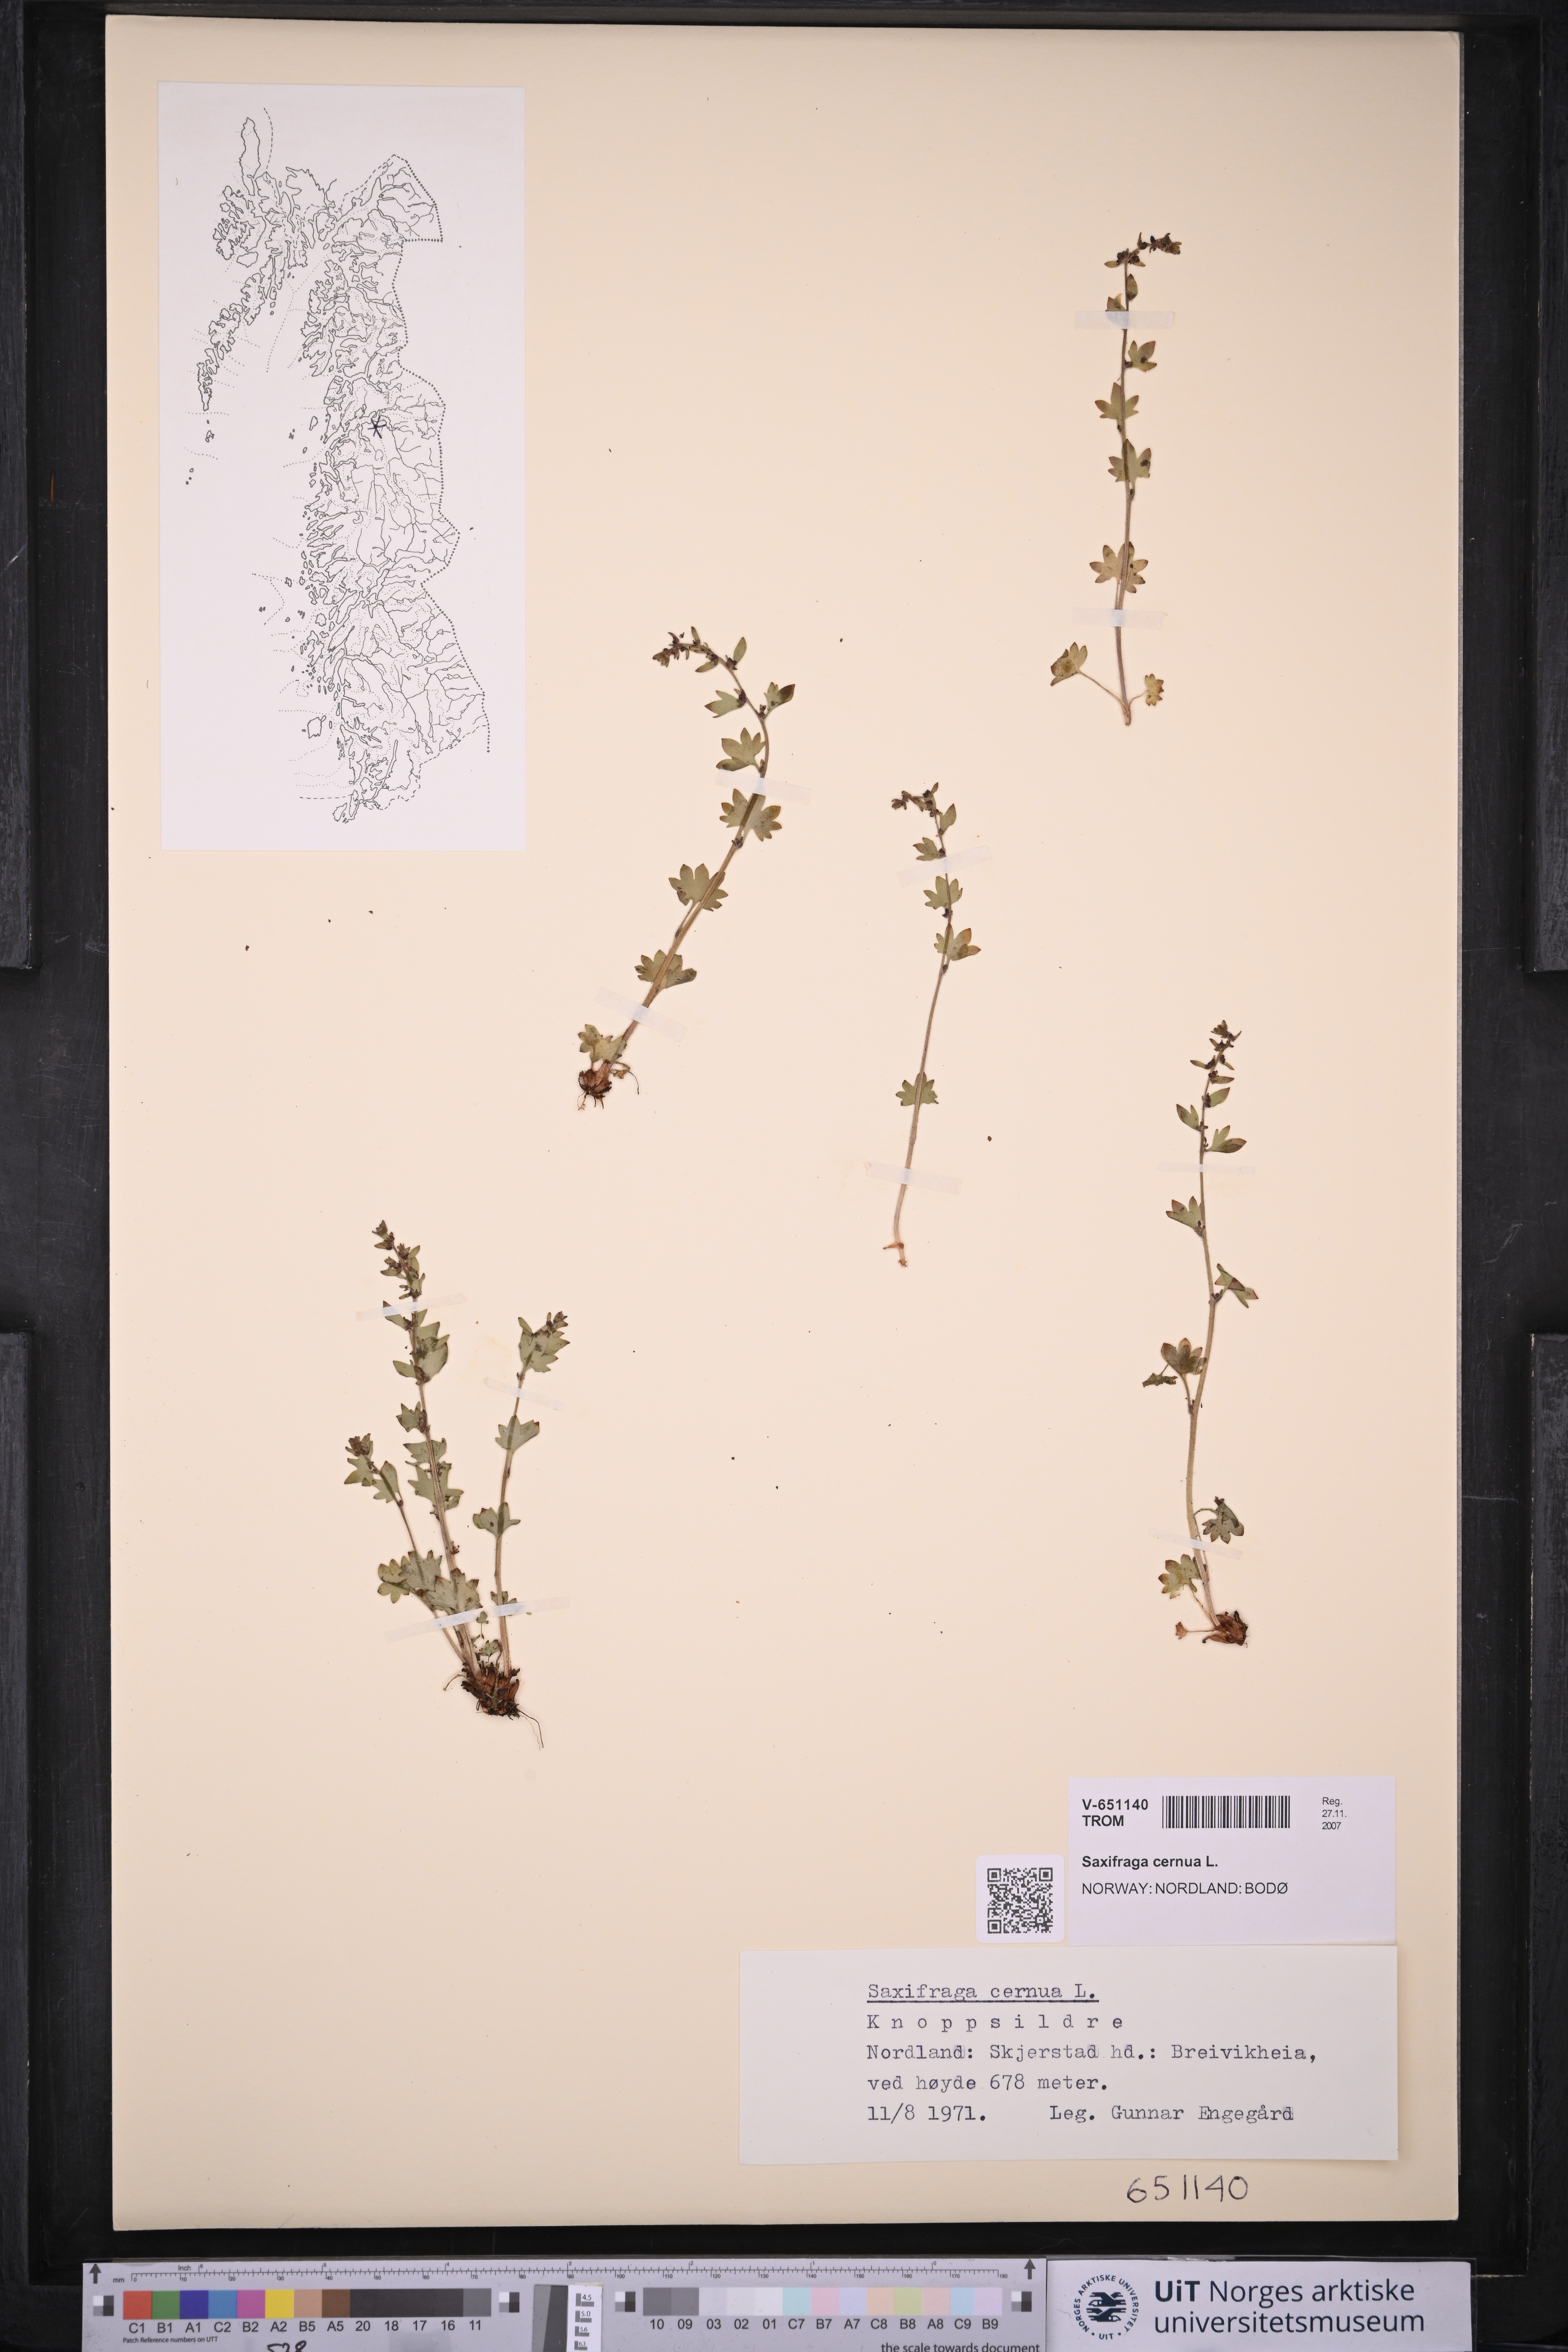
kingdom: Plantae
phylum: Tracheophyta
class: Magnoliopsida
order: Saxifragales
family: Saxifragaceae
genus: Saxifraga
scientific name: Saxifraga cernua
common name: Drooping saxifrage
